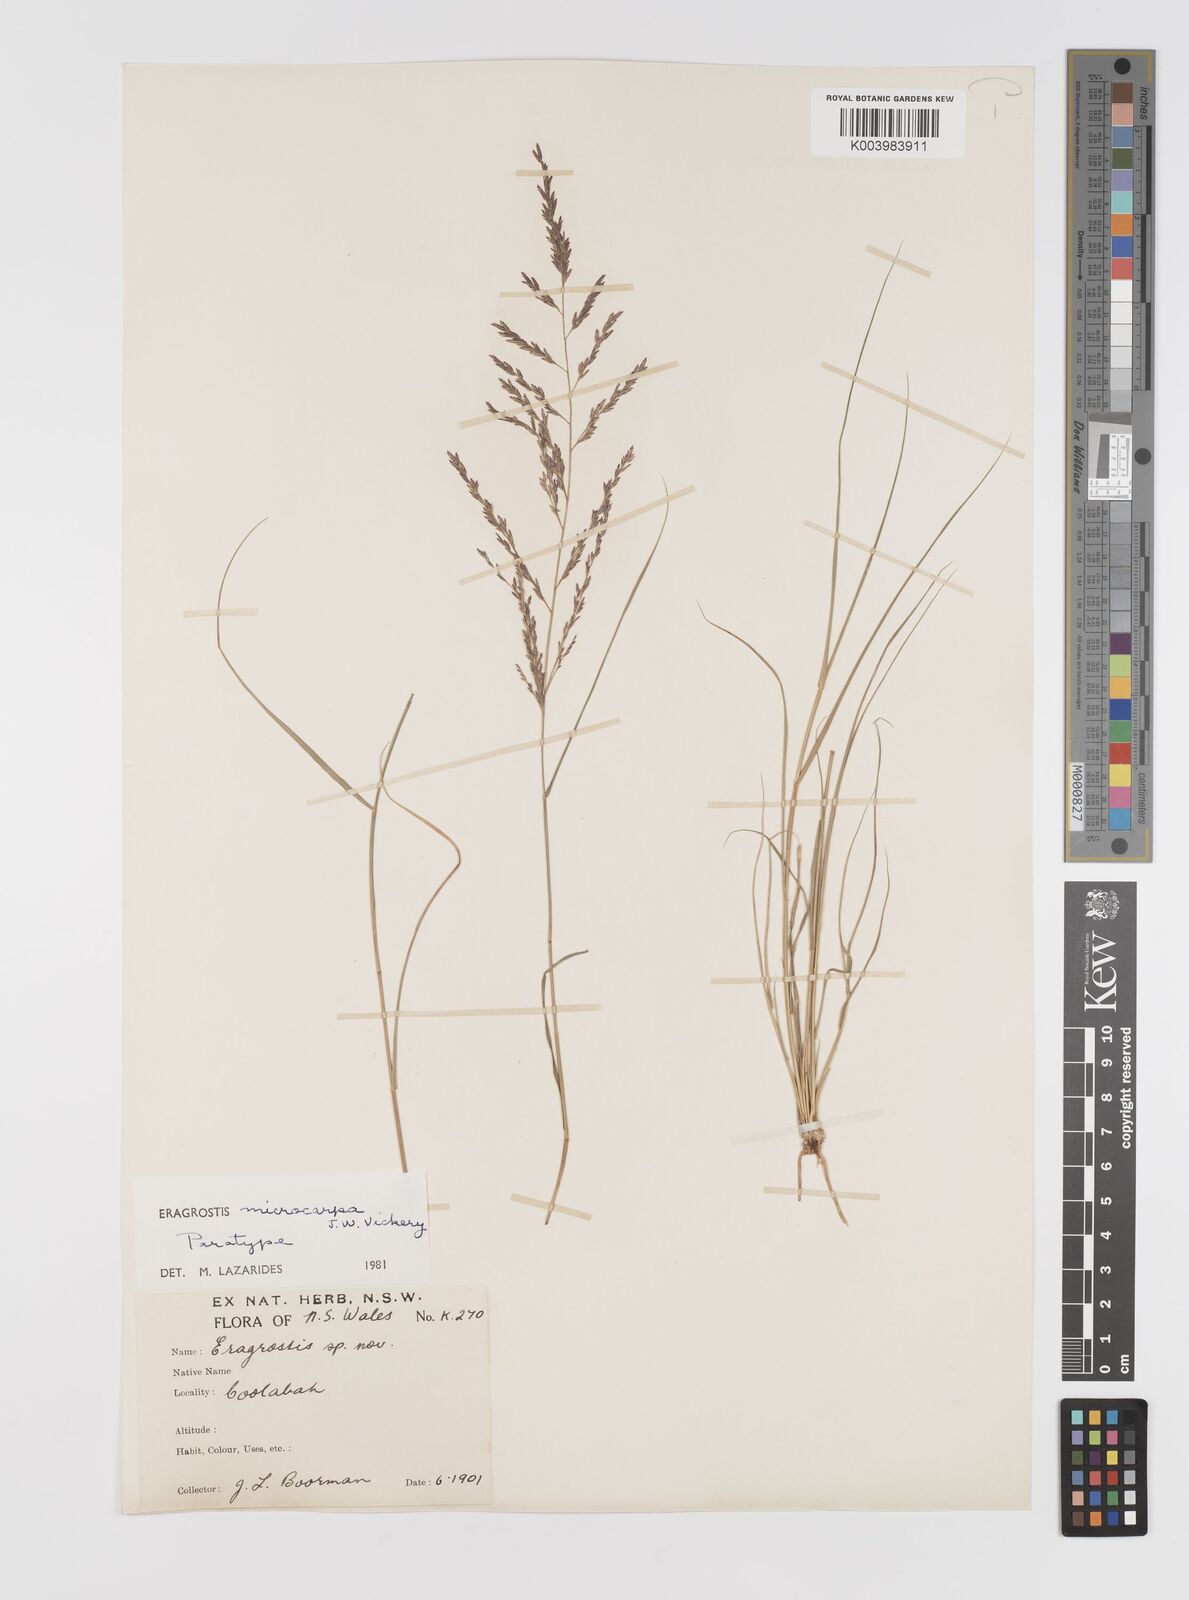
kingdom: Plantae
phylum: Tracheophyta
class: Liliopsida
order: Poales
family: Poaceae
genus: Eragrostis
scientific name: Eragrostis microcarpa
